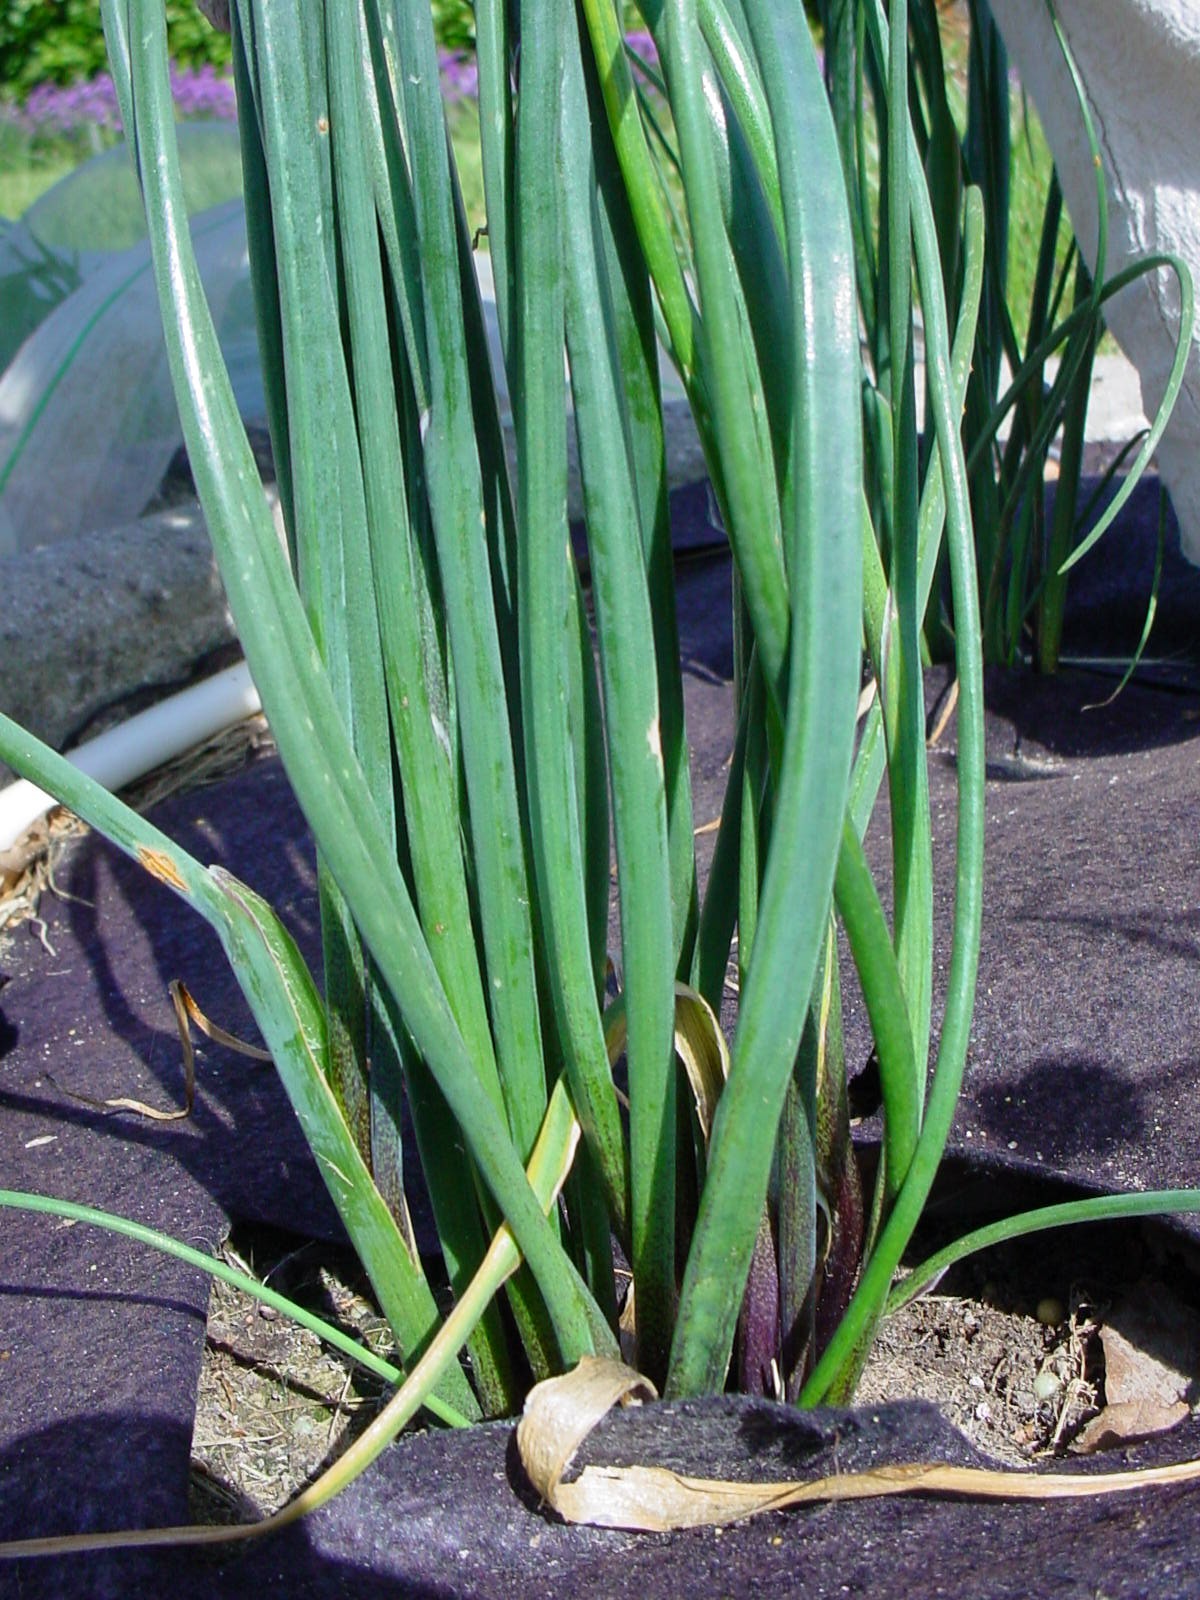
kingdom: Plantae
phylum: Tracheophyta
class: Liliopsida
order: Asparagales
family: Amaryllidaceae
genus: Allium
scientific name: Allium schoenoprasum
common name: Chives
